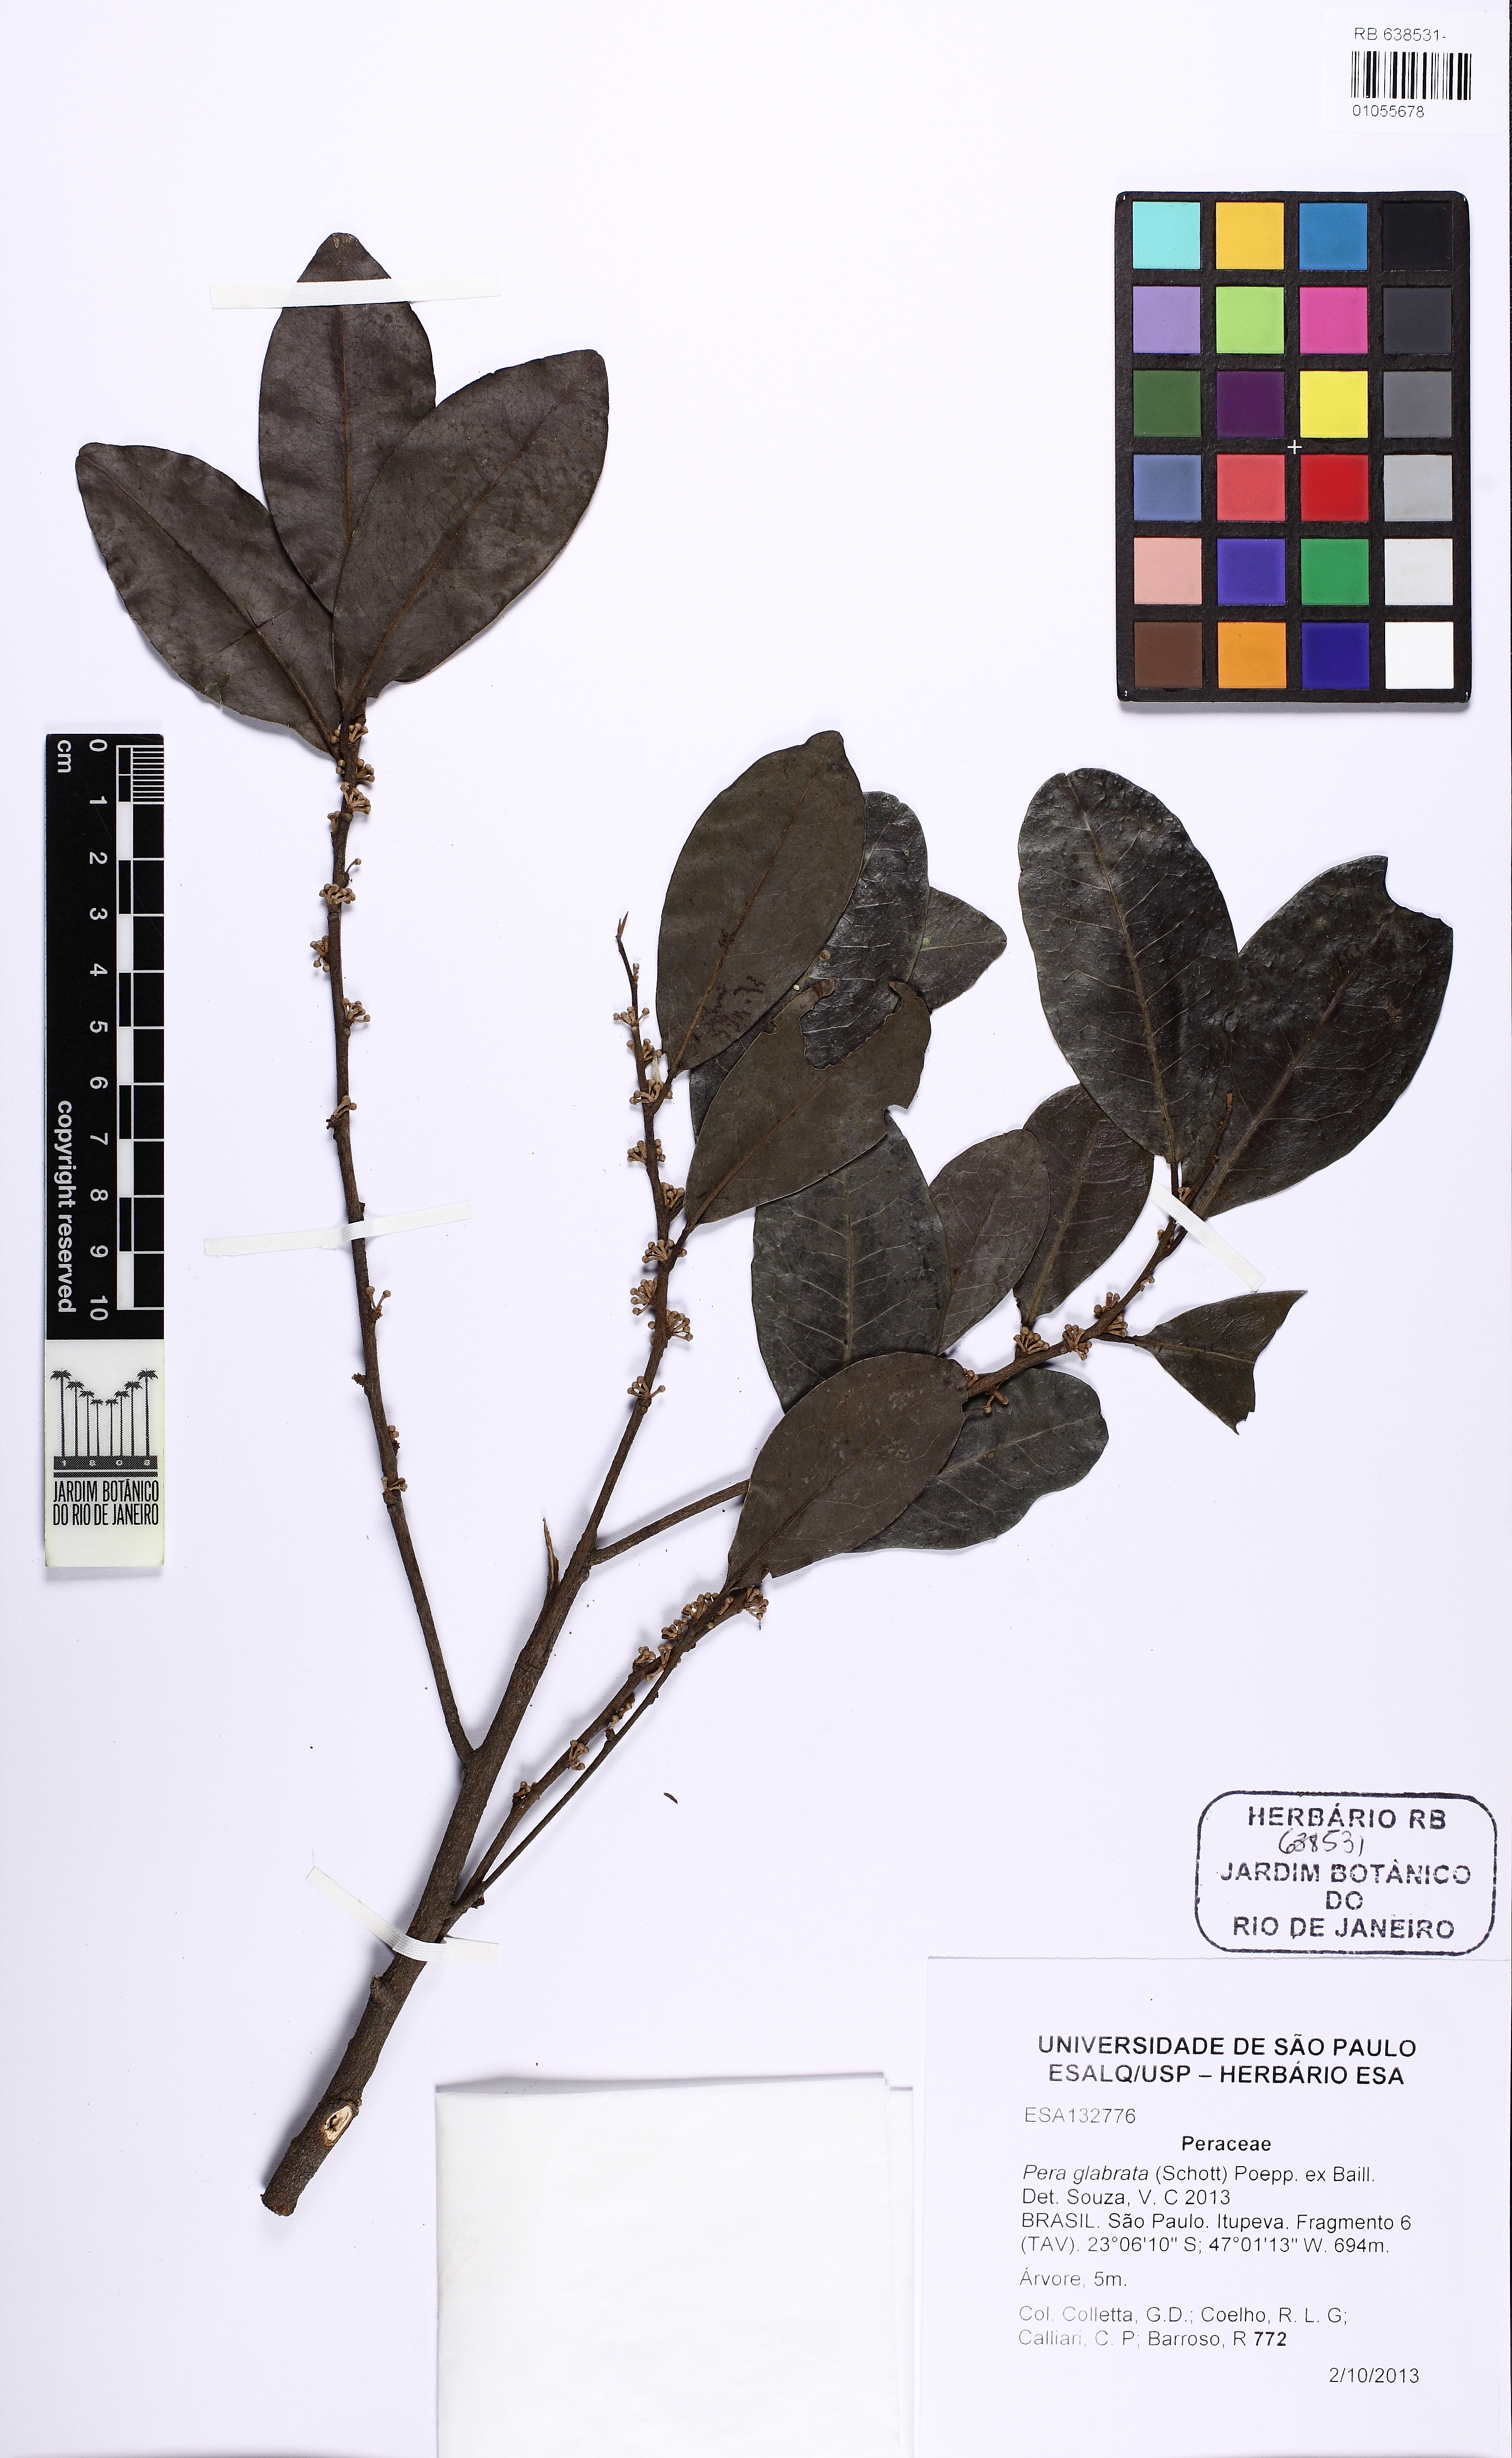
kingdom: Plantae
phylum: Tracheophyta
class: Magnoliopsida
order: Malpighiales
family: Peraceae
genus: Pera
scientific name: Pera glabrata
